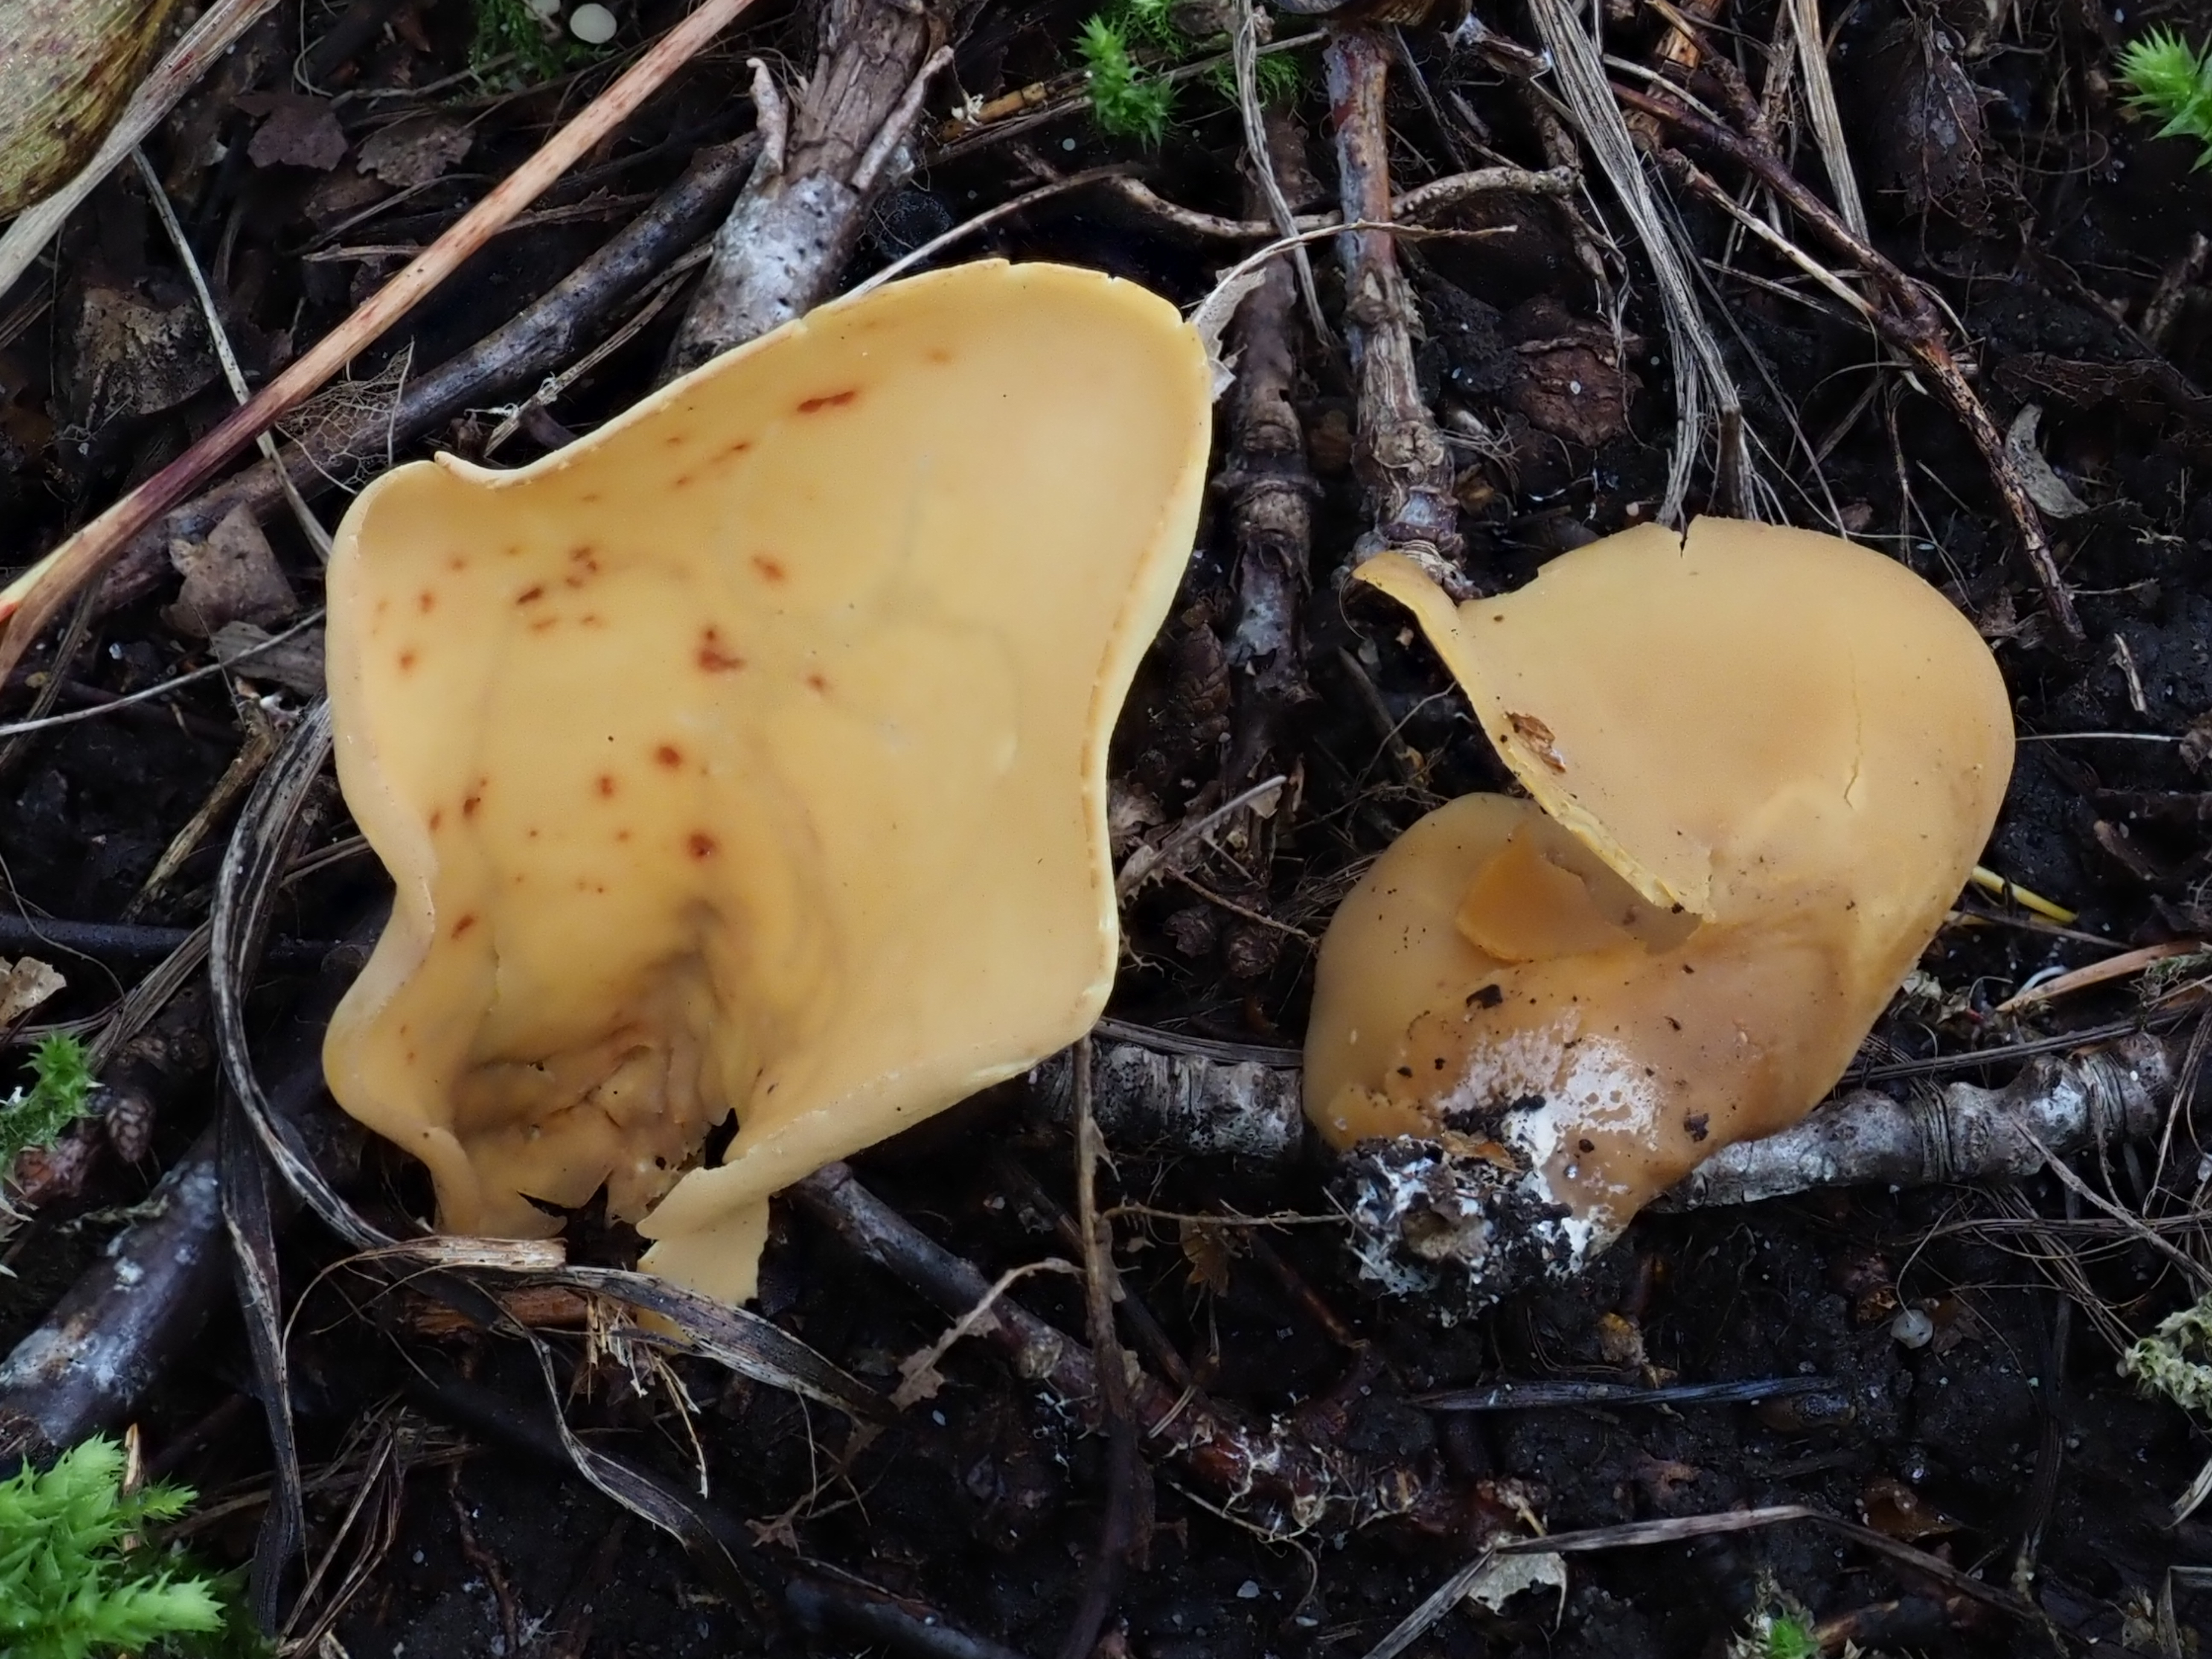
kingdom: Fungi
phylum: Ascomycota
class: Pezizomycetes
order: Pezizales
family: Otideaceae
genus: Otidea
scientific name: Otidea onotica
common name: Hare's ear
